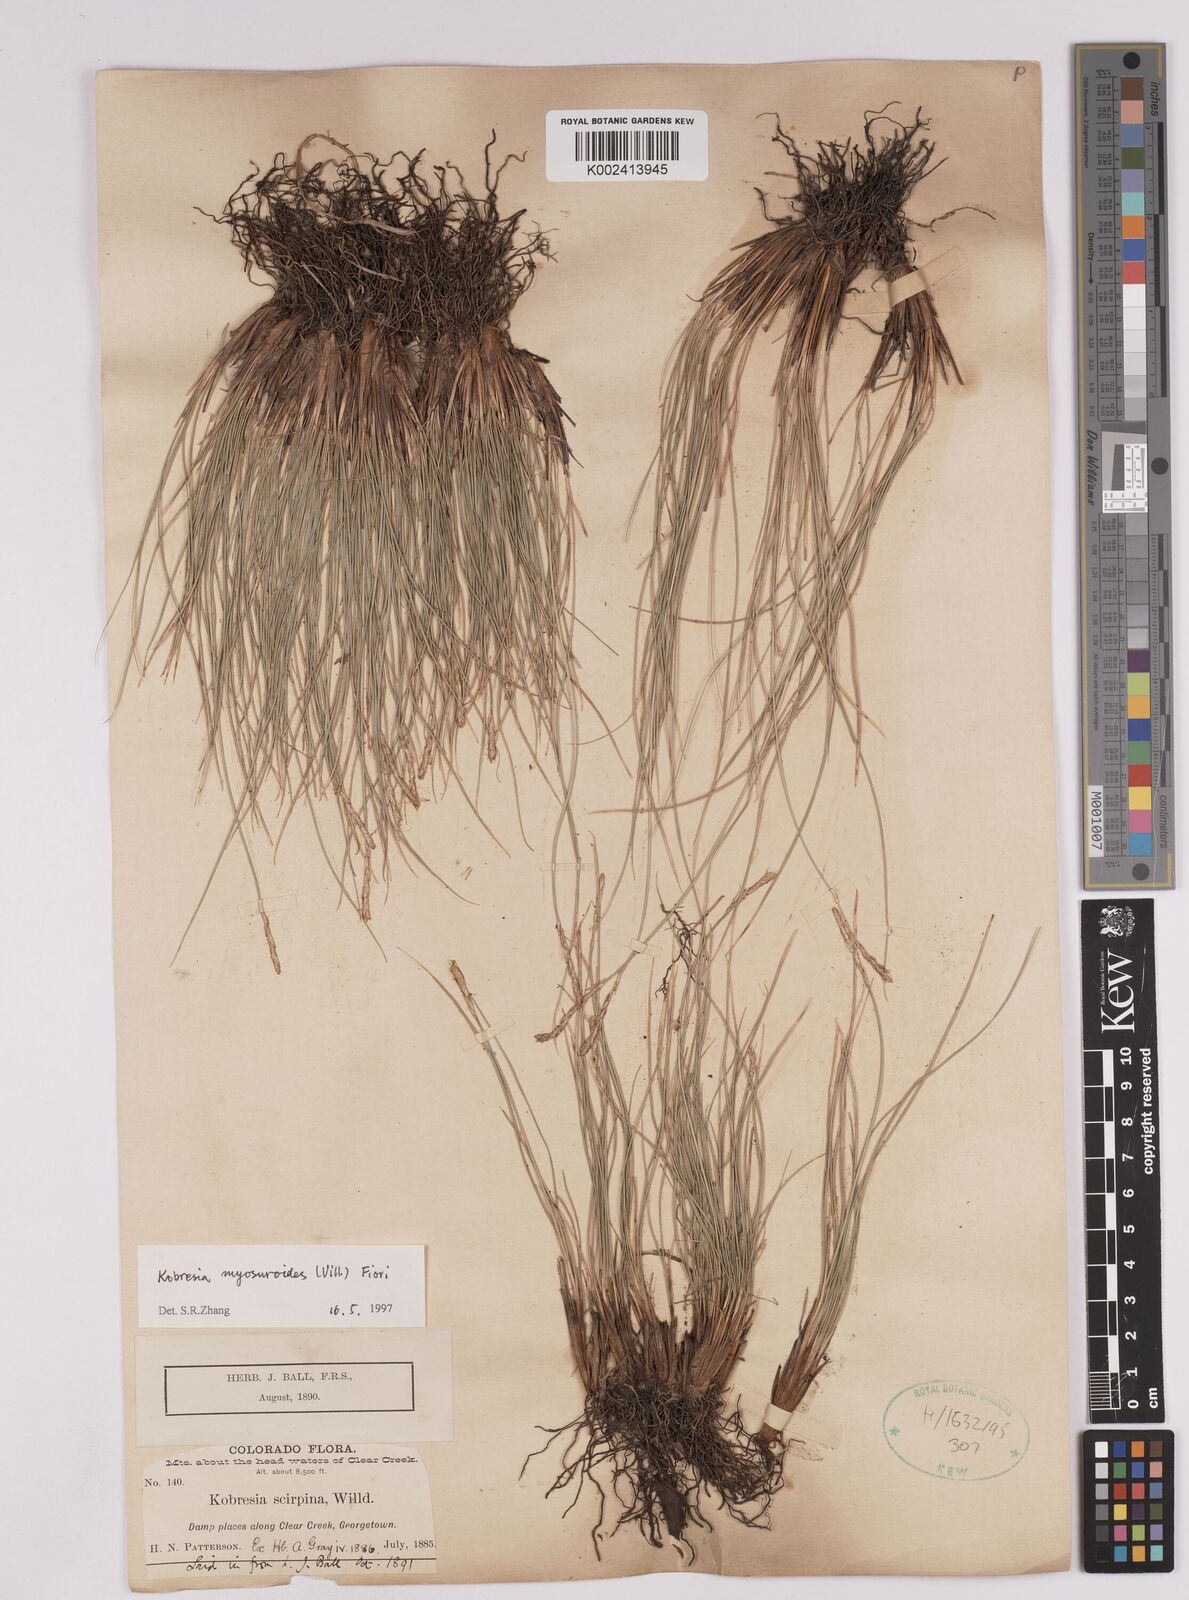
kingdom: Plantae
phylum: Tracheophyta
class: Liliopsida
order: Poales
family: Cyperaceae
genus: Carex
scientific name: Carex myosuroides
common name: Bellard's bog sedge
